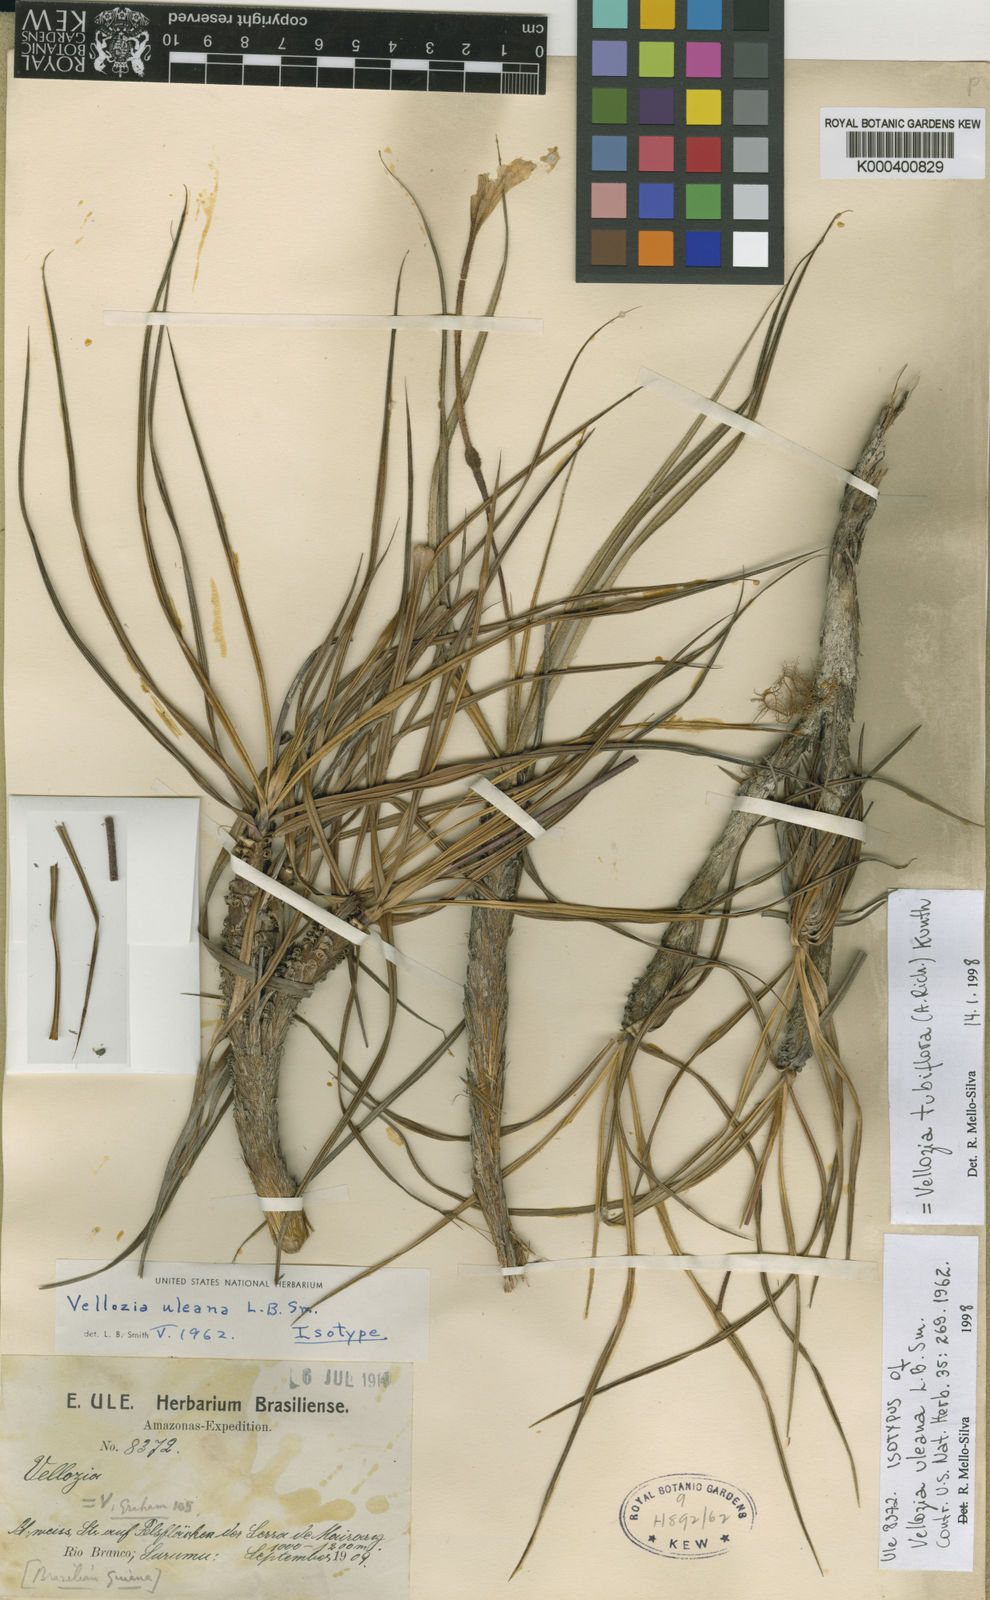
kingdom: Plantae
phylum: Tracheophyta
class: Liliopsida
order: Pandanales
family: Velloziaceae
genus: Vellozia
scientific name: Vellozia tubiflora
